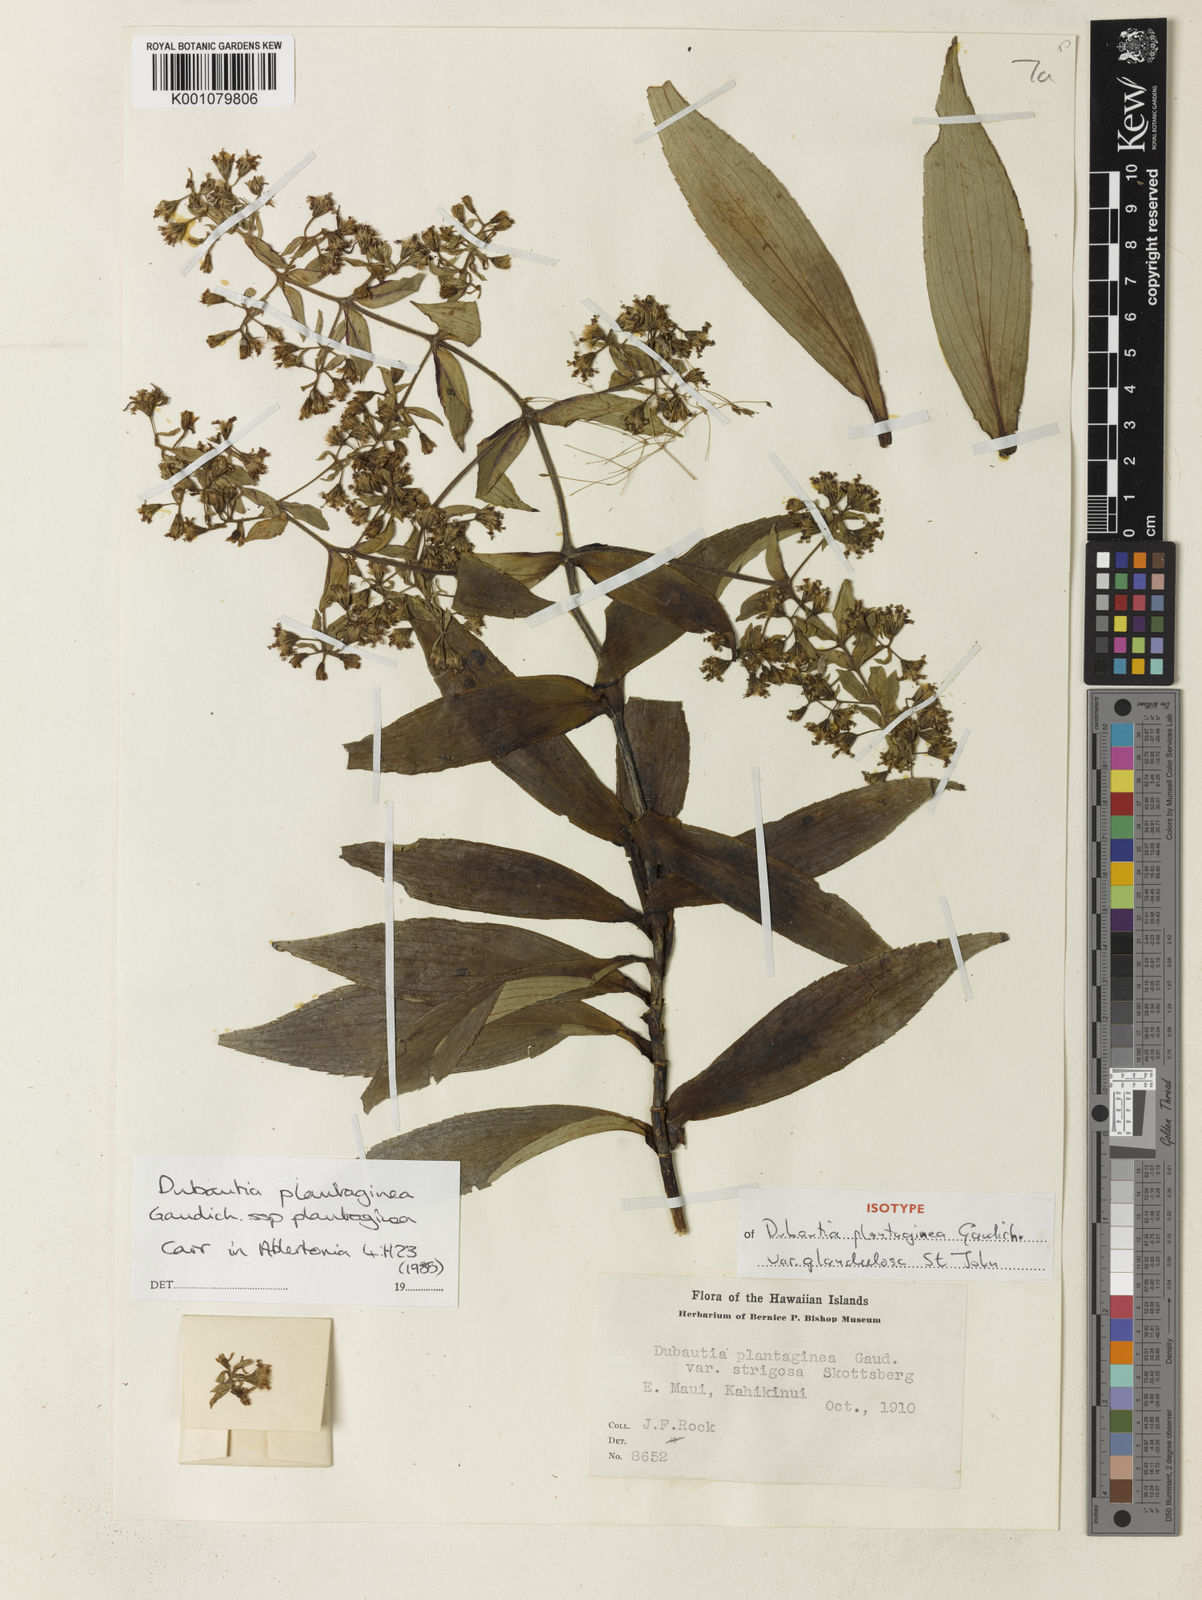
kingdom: Plantae
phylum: Tracheophyta
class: Magnoliopsida
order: Asterales
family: Asteraceae
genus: Dubautia
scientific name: Dubautia plantaginea
